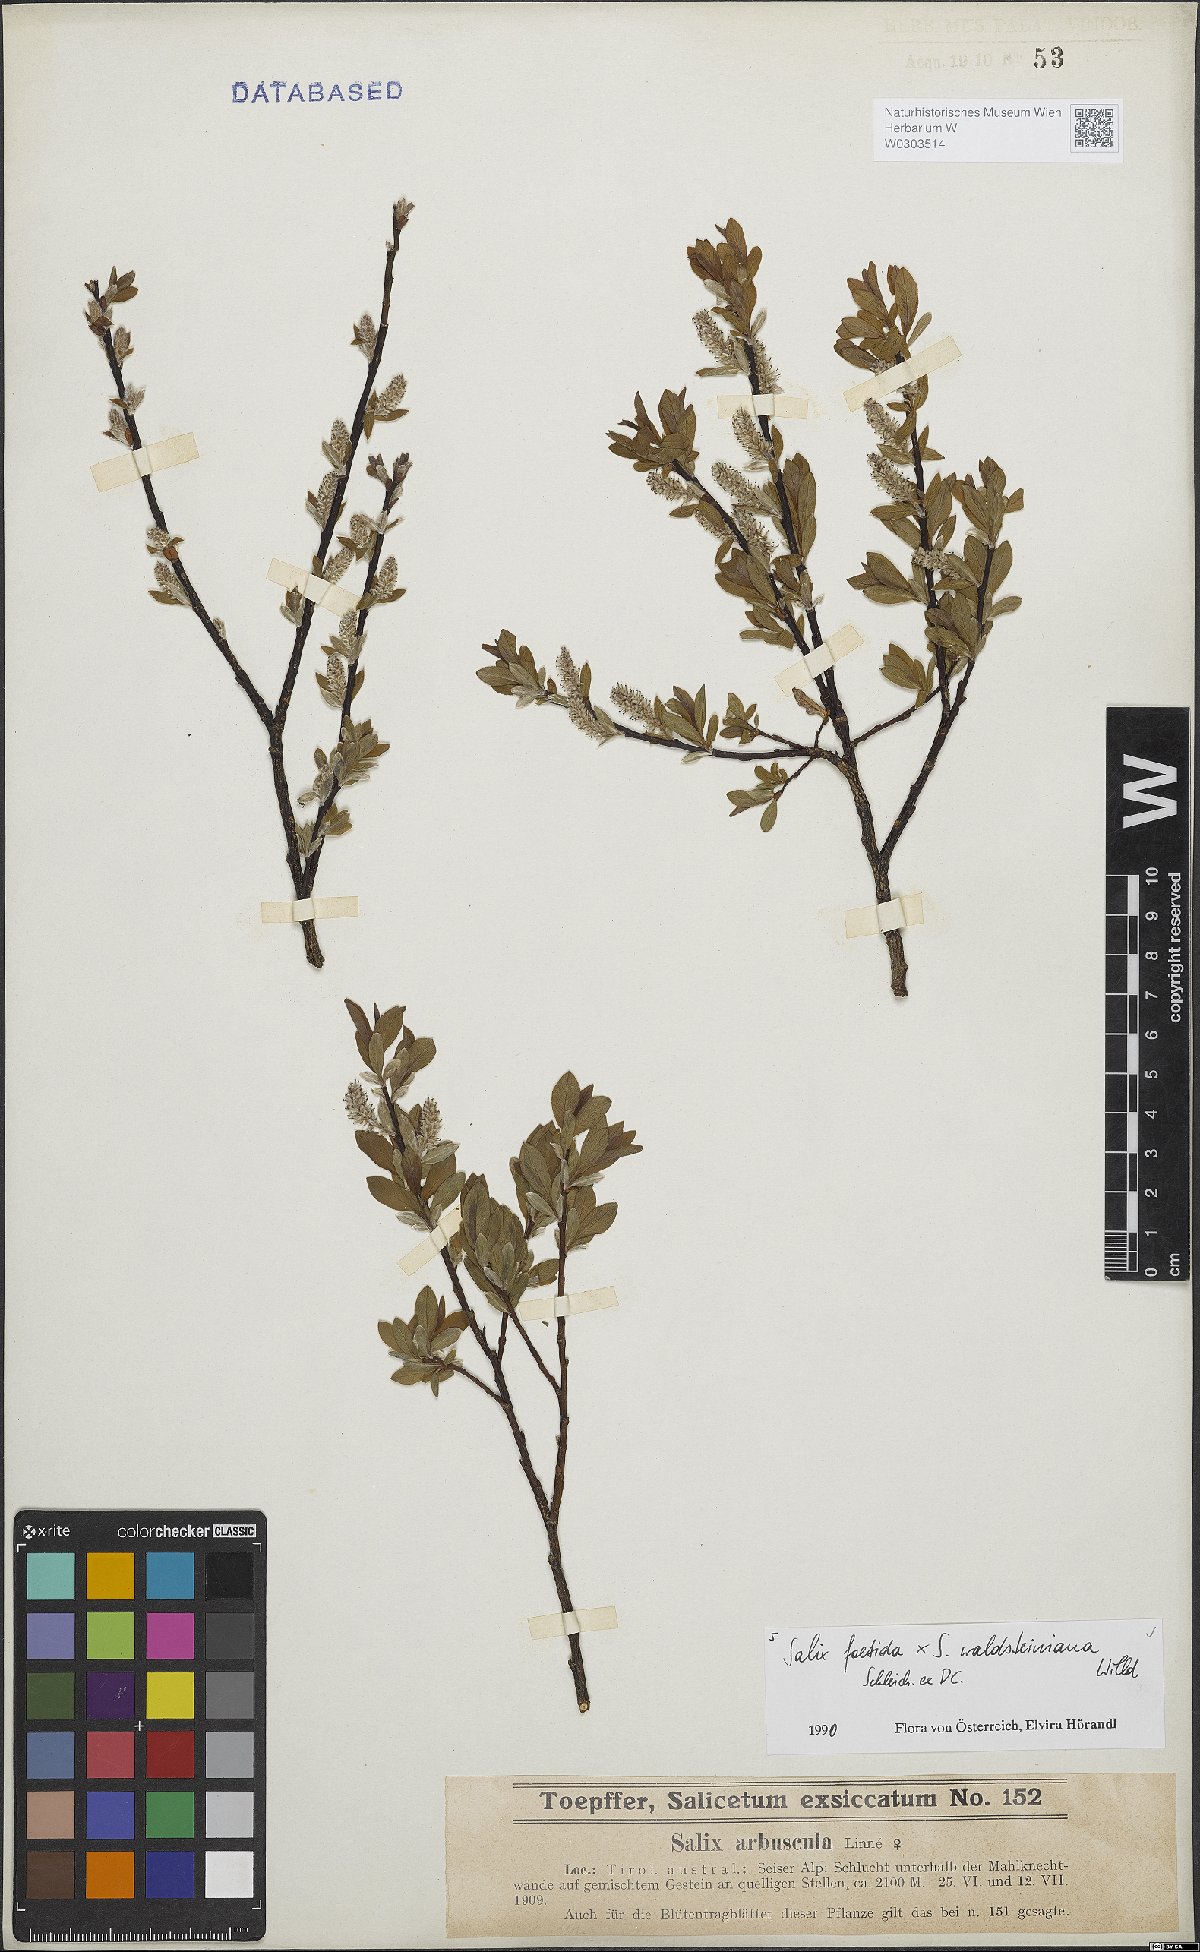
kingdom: Plantae
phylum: Tracheophyta
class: Magnoliopsida
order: Malpighiales
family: Salicaceae
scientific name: Salicaceae
